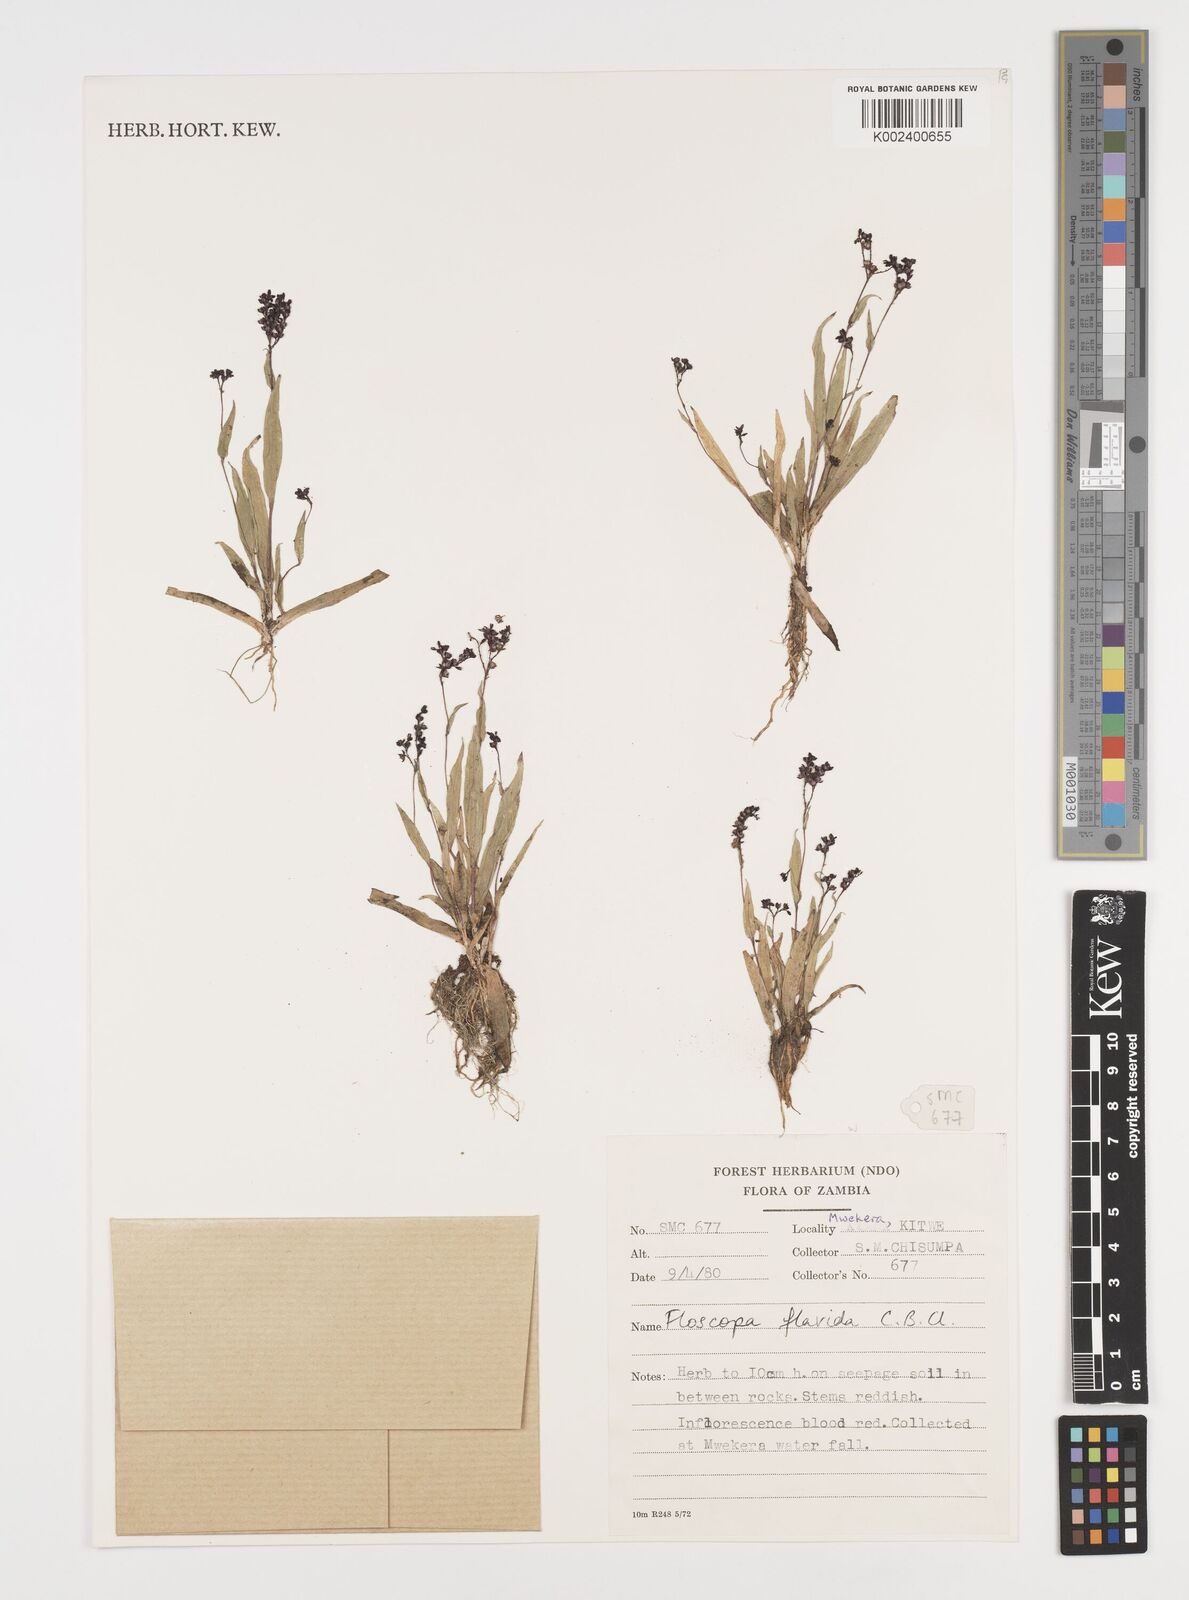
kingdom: Plantae
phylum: Tracheophyta
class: Liliopsida
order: Commelinales
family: Commelinaceae
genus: Floscopa
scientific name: Floscopa flavida
